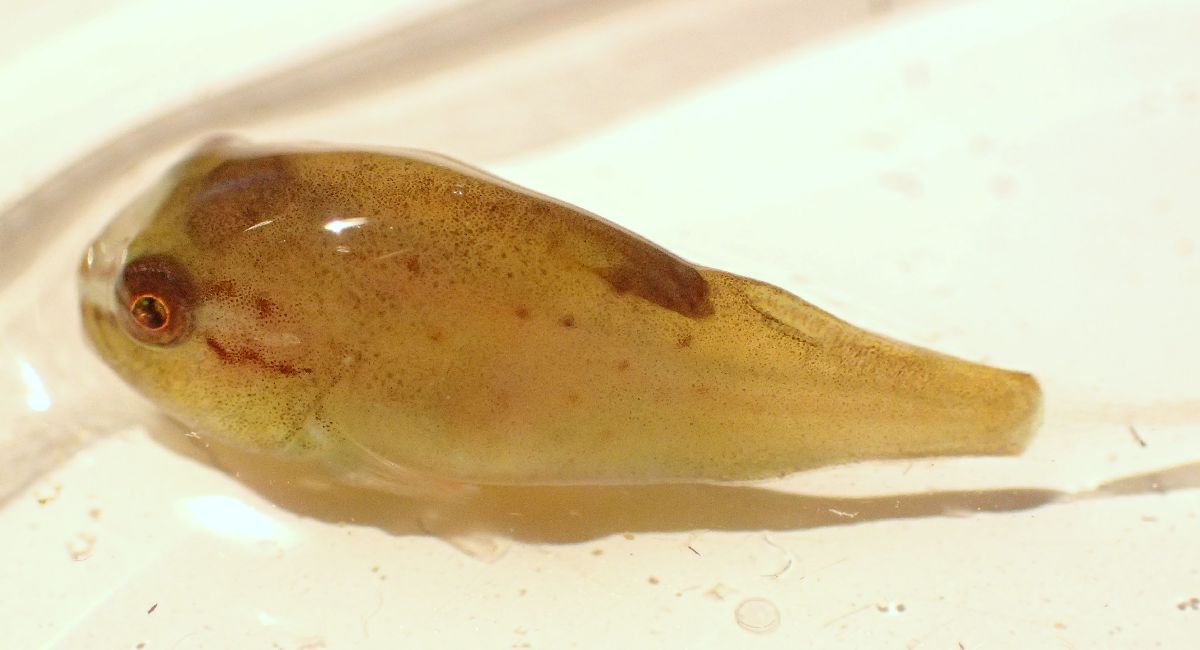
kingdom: Animalia
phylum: Chordata
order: Scorpaeniformes
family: Cyclopteridae
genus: Cyclopterus
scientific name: Cyclopterus lumpus
